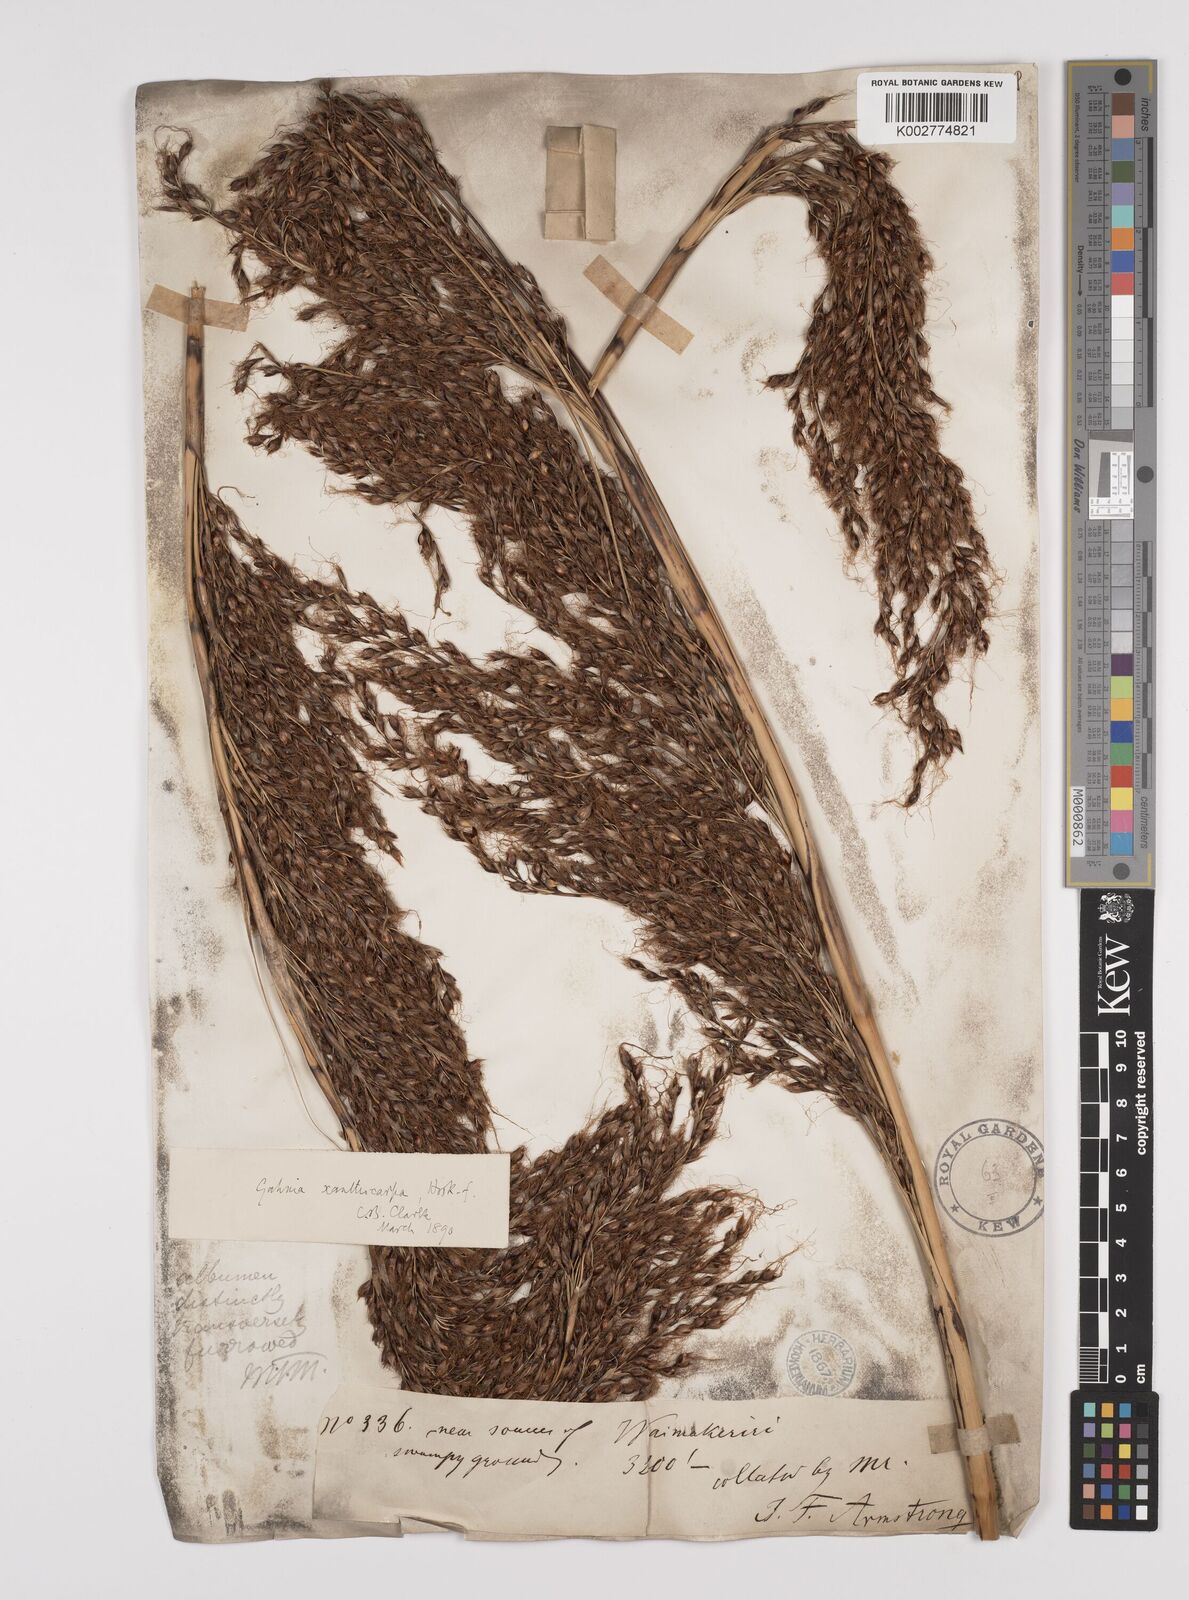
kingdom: Plantae
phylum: Tracheophyta
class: Liliopsida
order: Poales
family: Cyperaceae
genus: Gahnia
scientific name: Gahnia xanthocarpa
